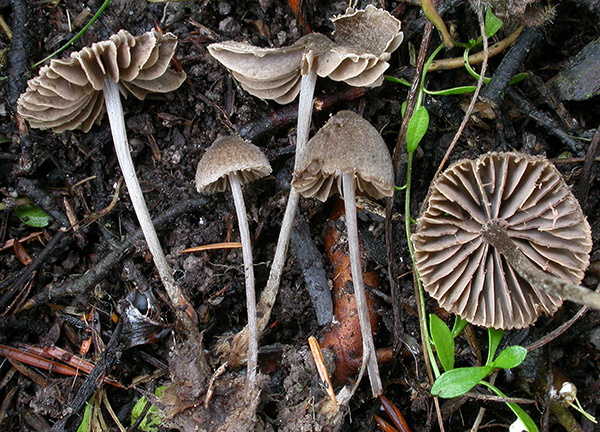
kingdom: Fungi
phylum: Basidiomycota
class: Agaricomycetes
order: Agaricales
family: Entolomataceae
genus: Entoloma
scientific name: Entoloma hirtum
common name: askegrå rødblad
